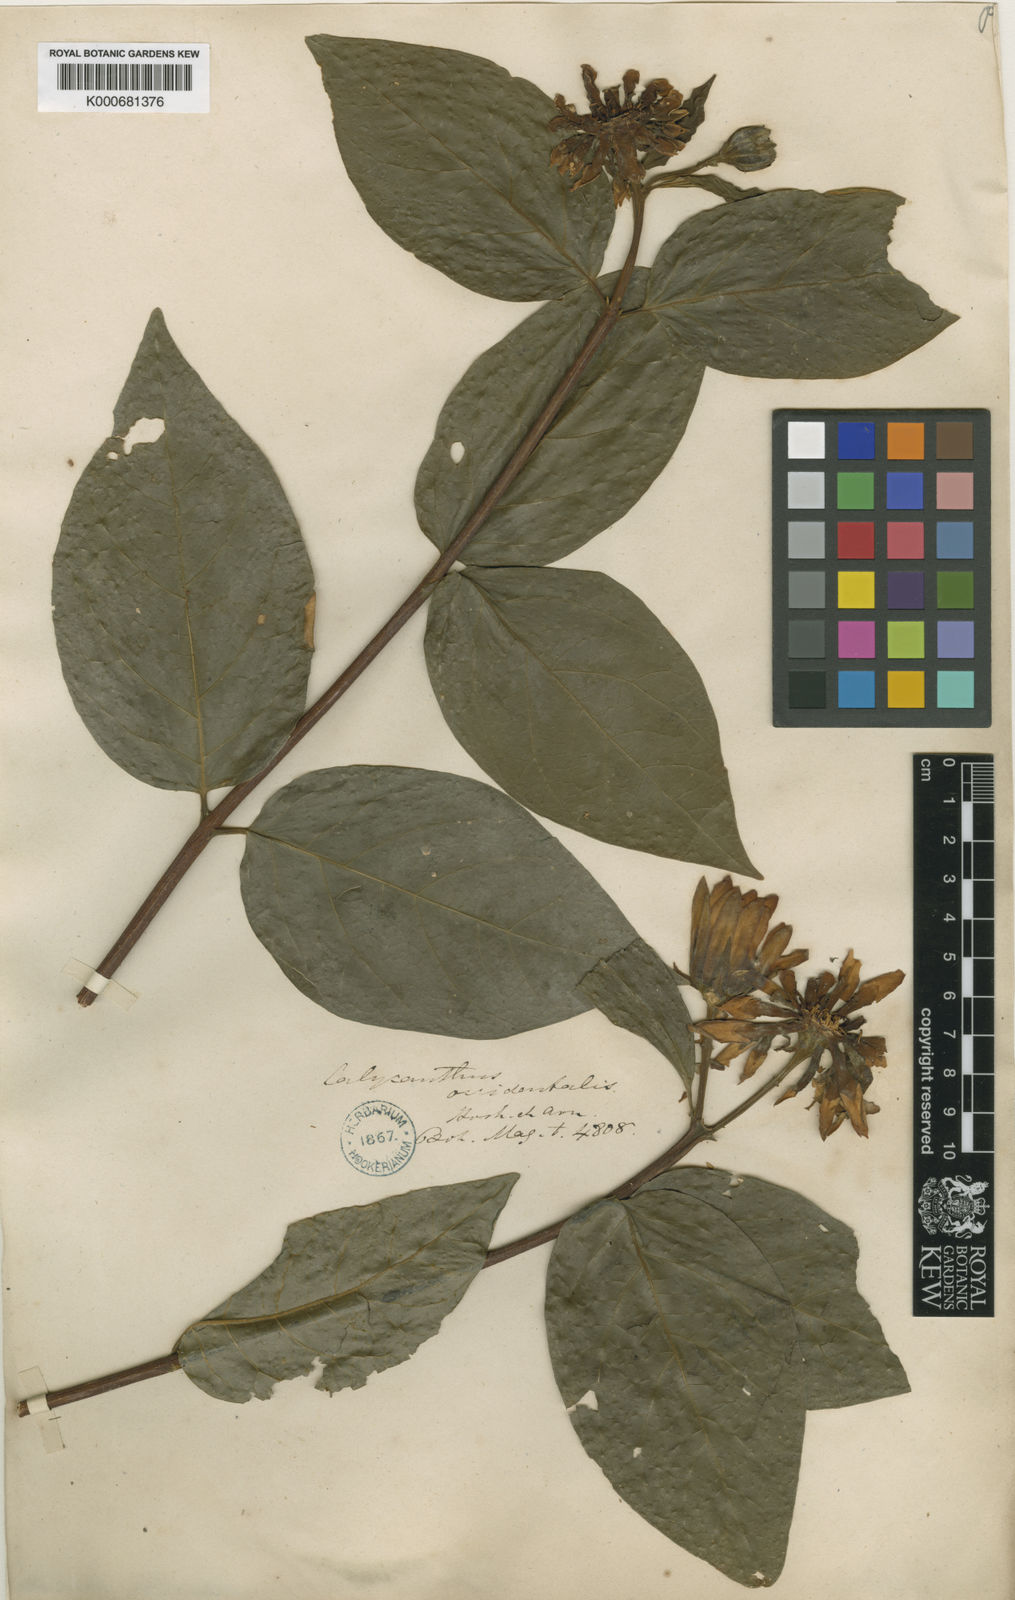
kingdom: Plantae
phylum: Tracheophyta
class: Magnoliopsida
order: Laurales
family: Calycanthaceae
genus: Calycanthus
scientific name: Calycanthus
